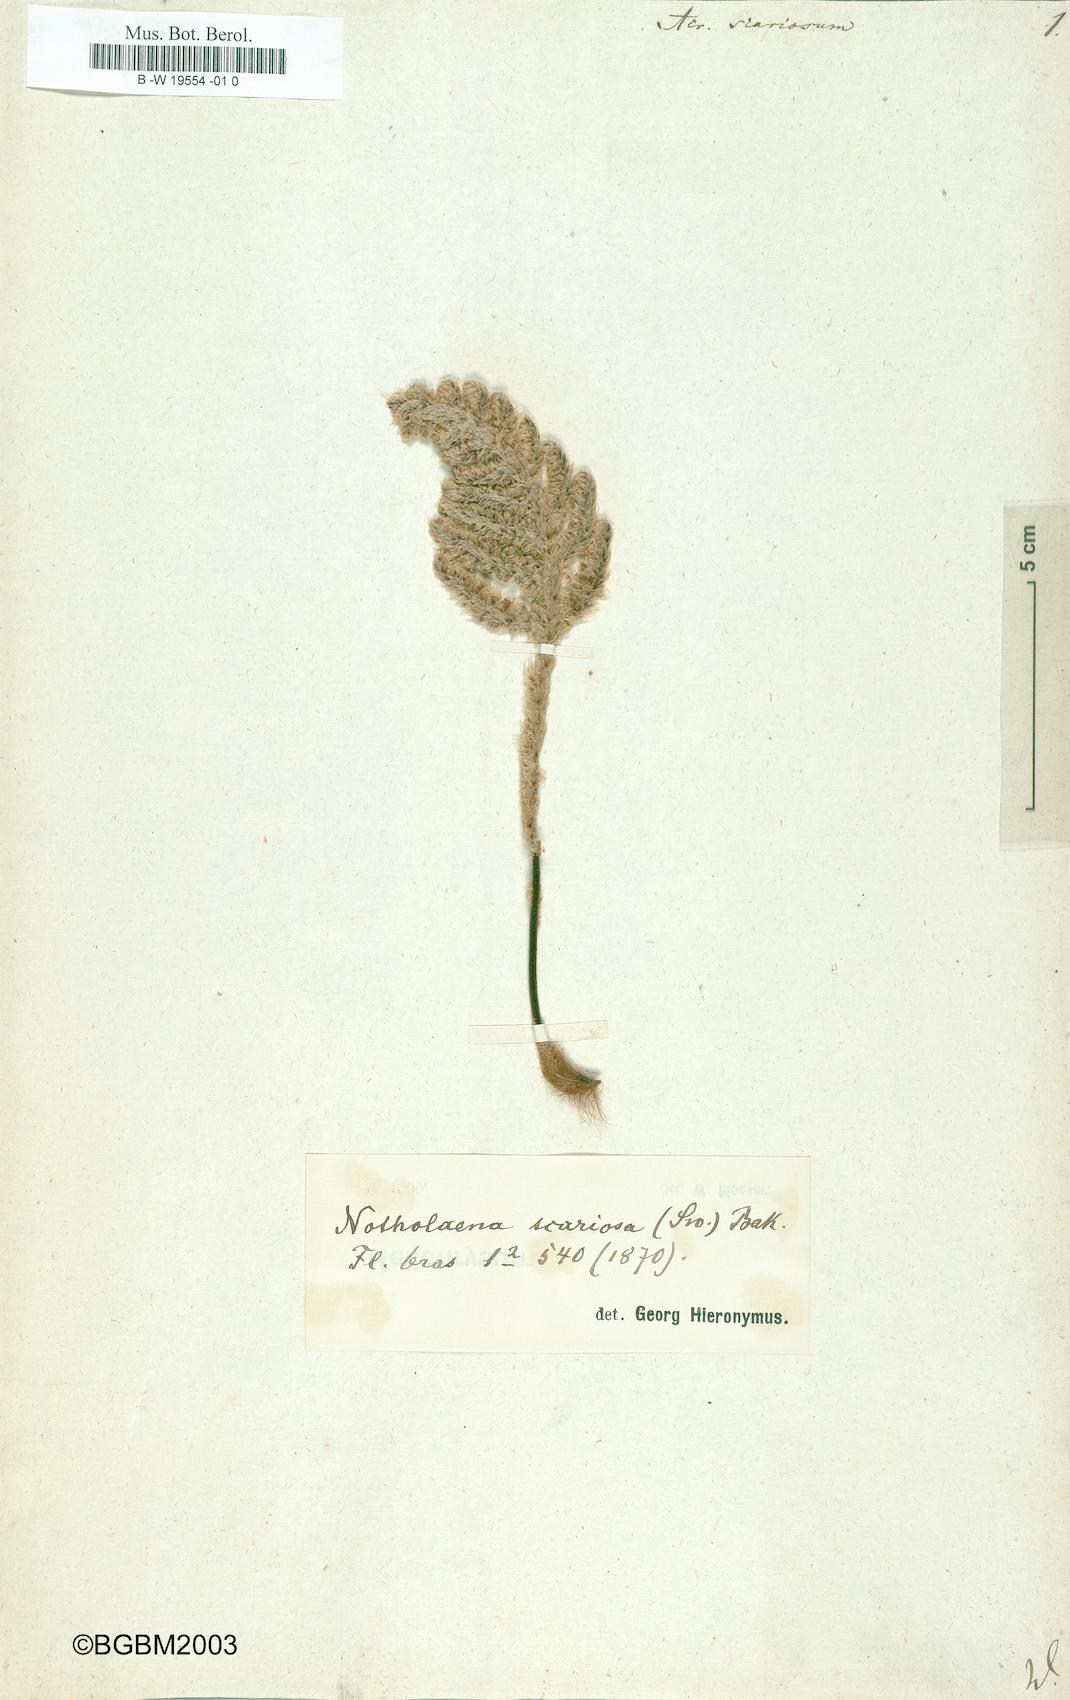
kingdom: Plantae
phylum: Tracheophyta
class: Polypodiopsida
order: Polypodiales
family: Pteridaceae
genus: Cheilanthes
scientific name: Cheilanthes scariosa
